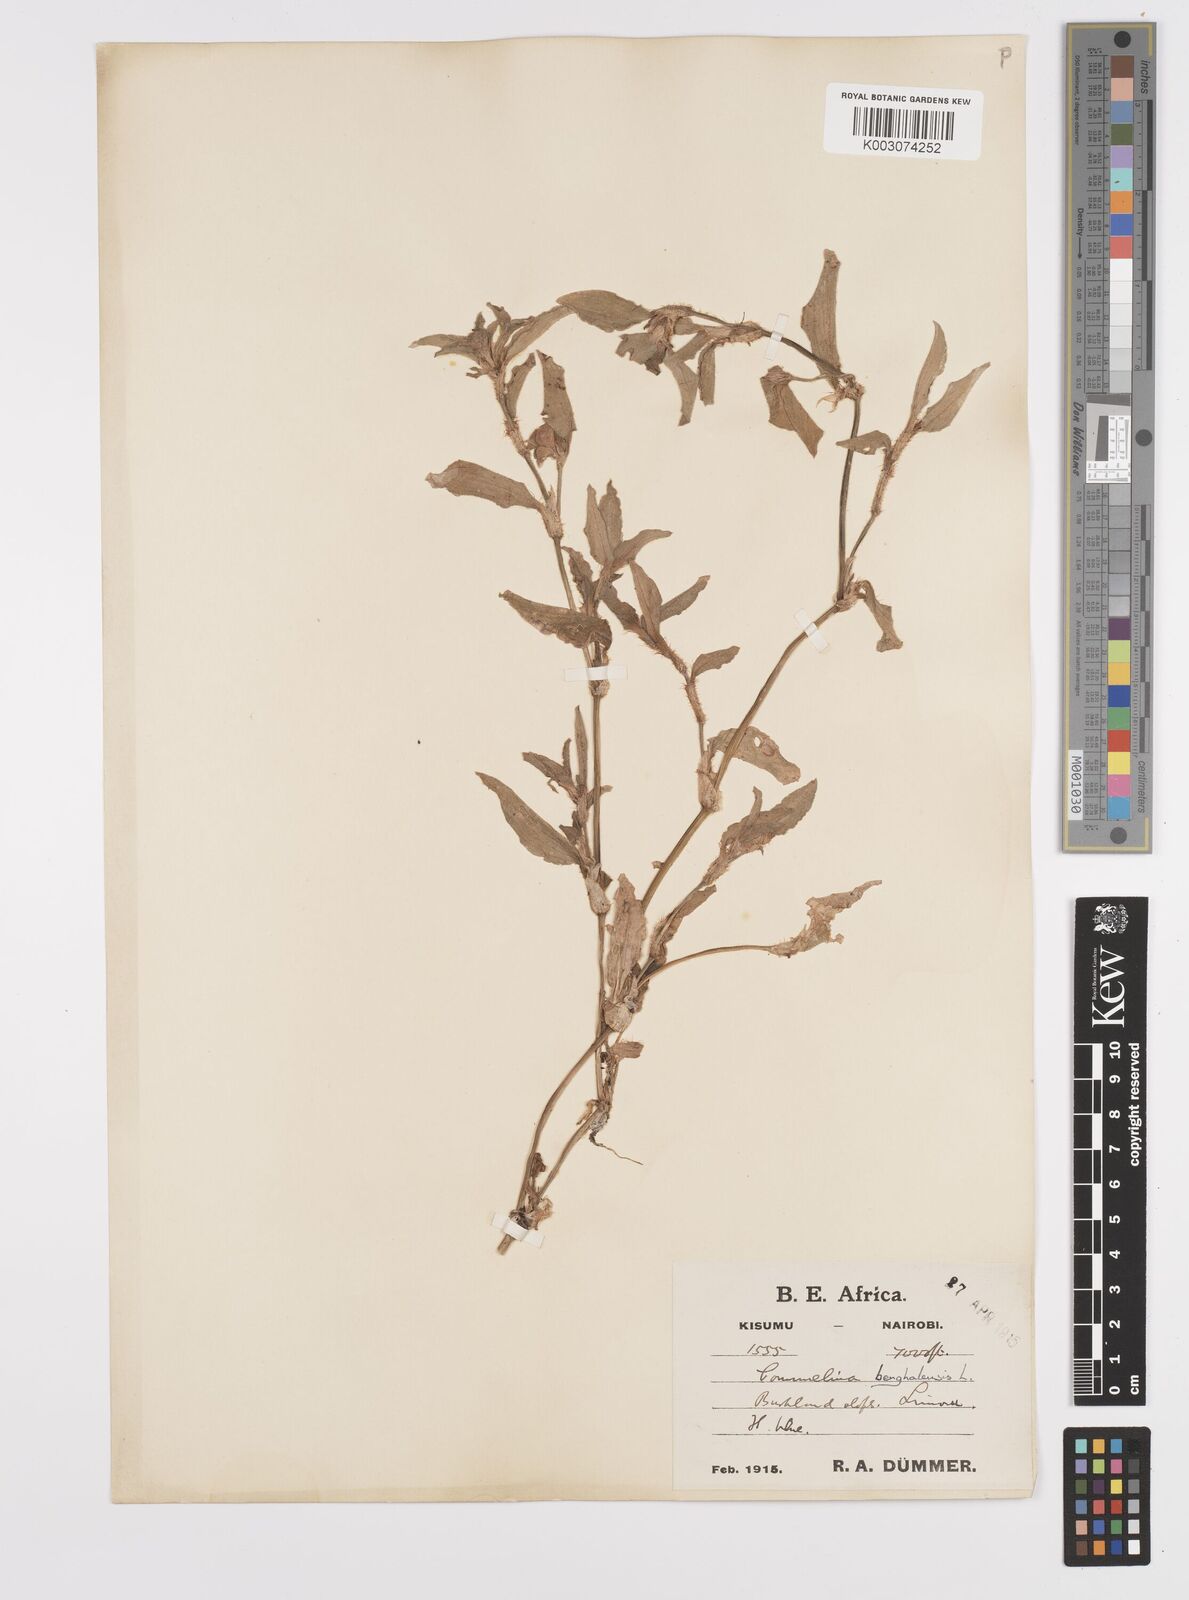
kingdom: Plantae
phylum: Tracheophyta
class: Liliopsida
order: Commelinales
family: Commelinaceae
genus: Commelina
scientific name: Commelina benghalensis
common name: Jio
